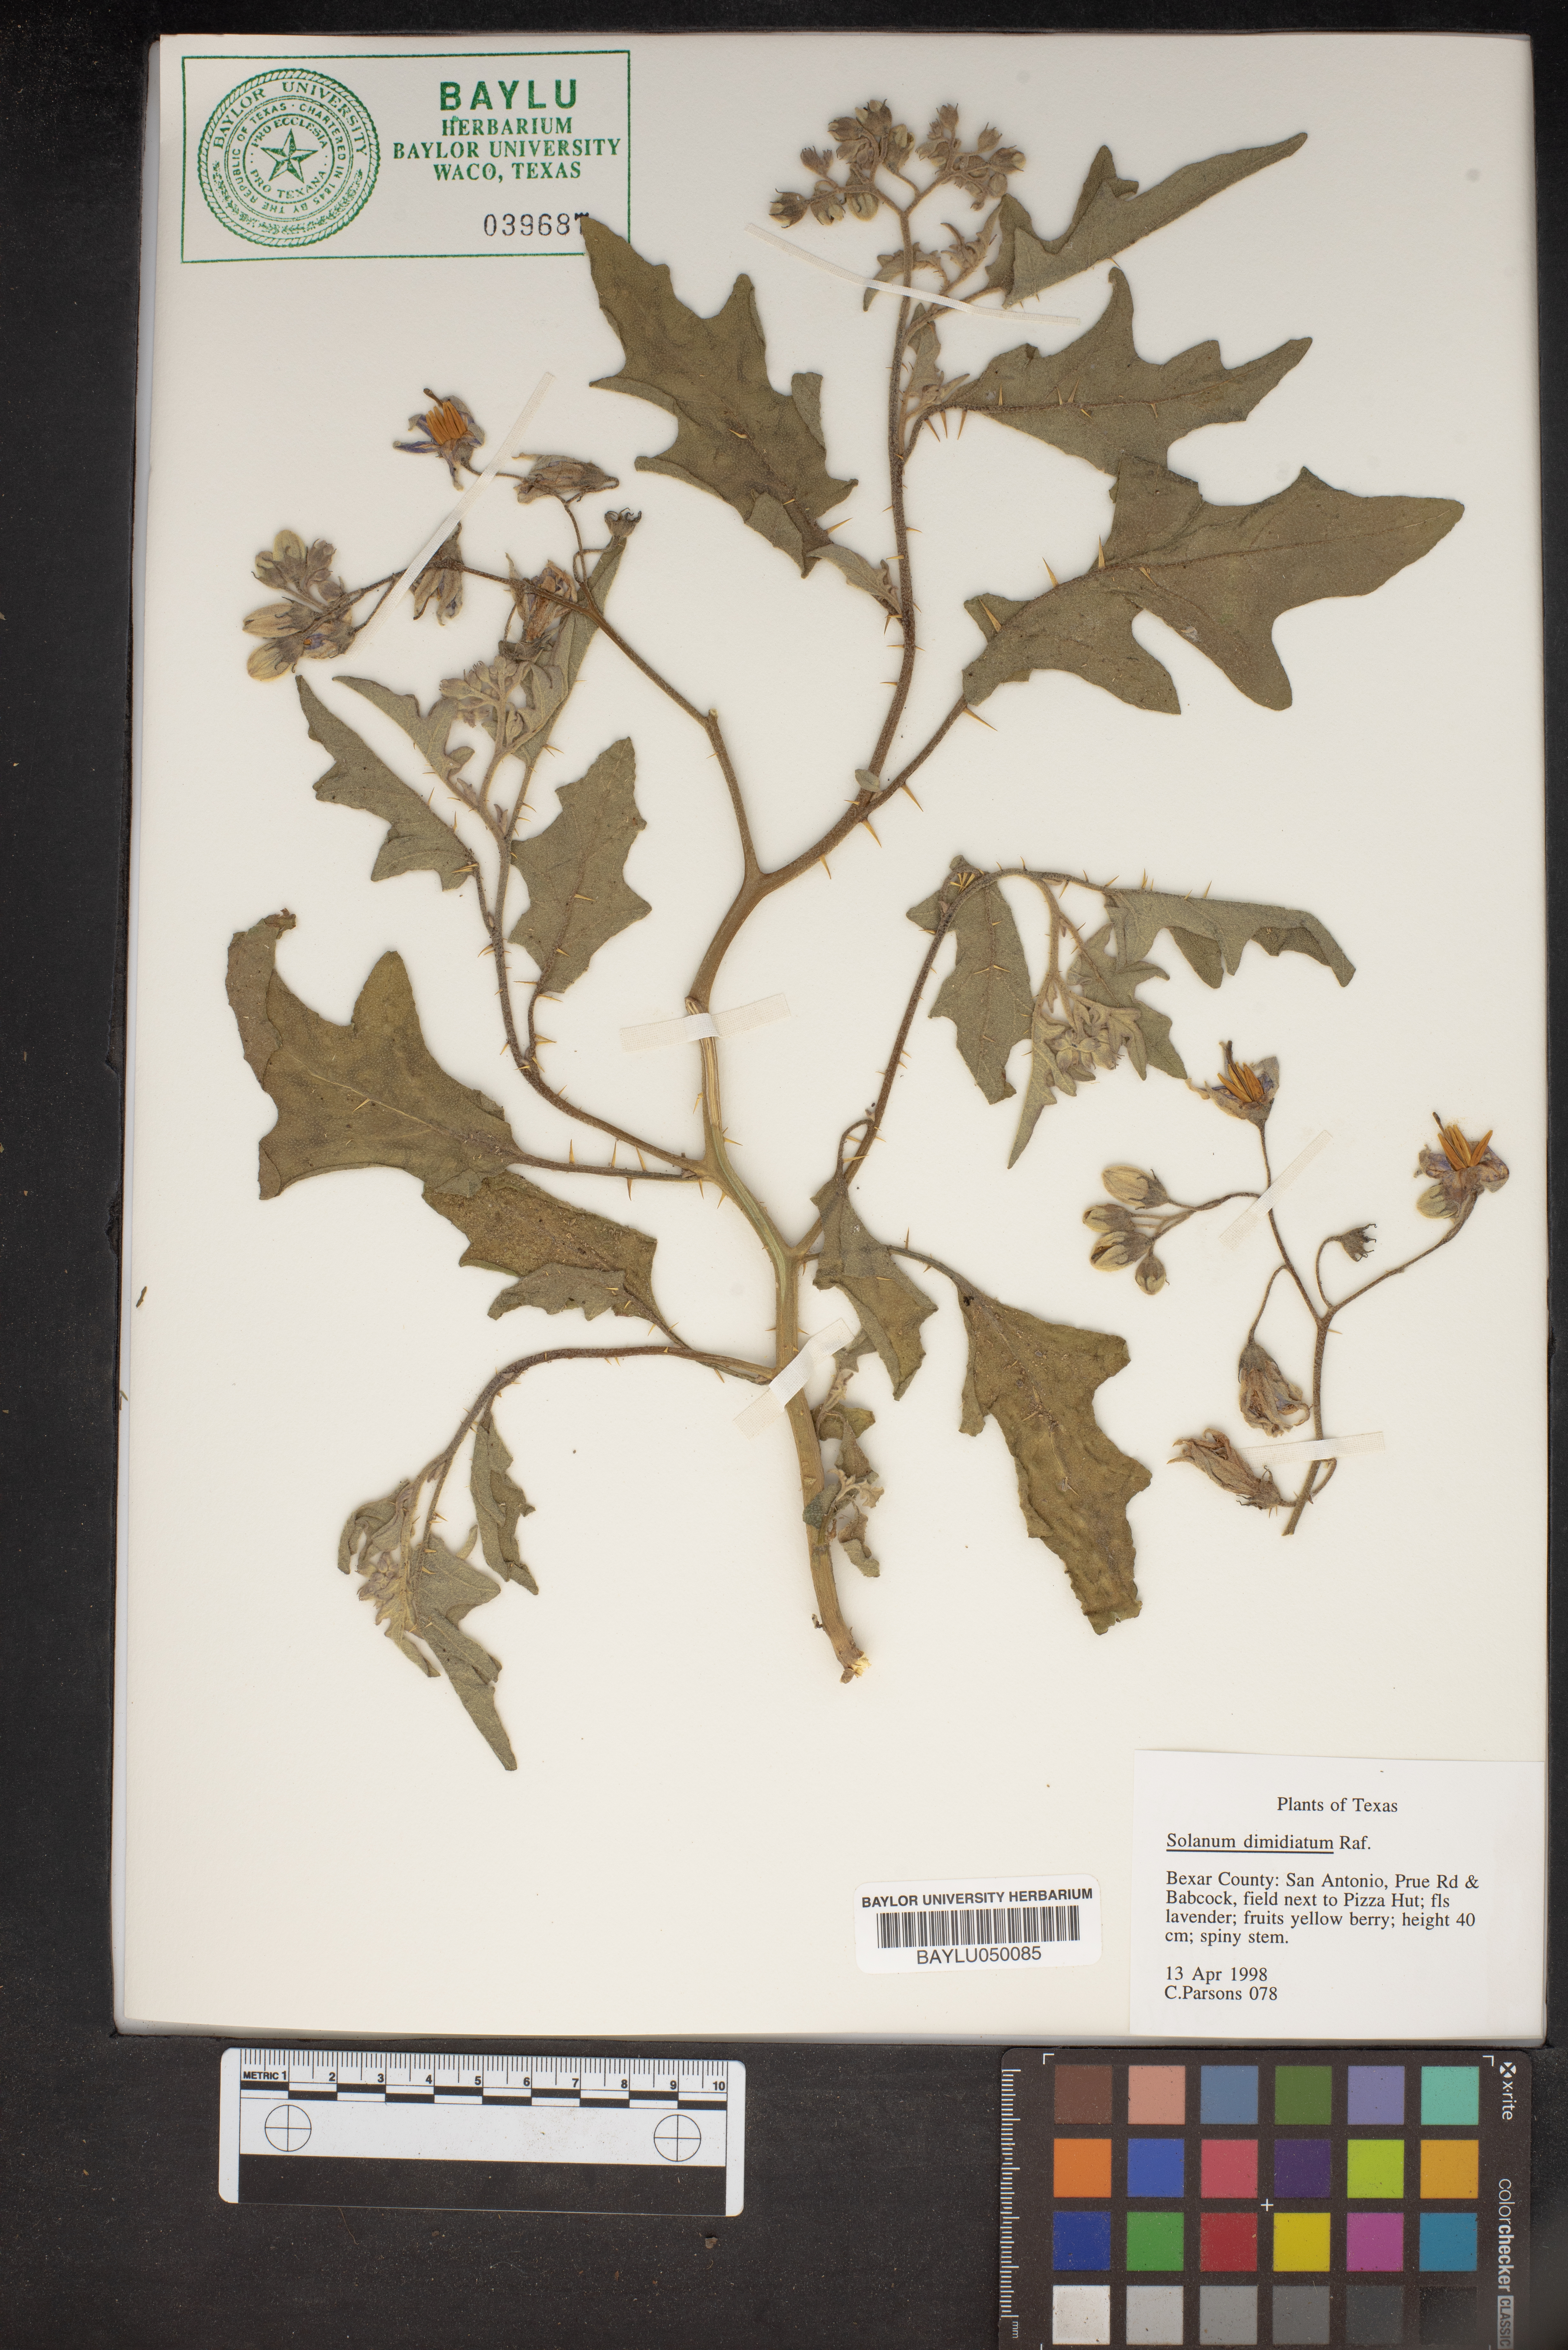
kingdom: Plantae
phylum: Tracheophyta
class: Magnoliopsida
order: Solanales
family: Solanaceae
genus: Solanum
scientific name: Solanum dimidiatum
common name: Carolina horse-nettle
